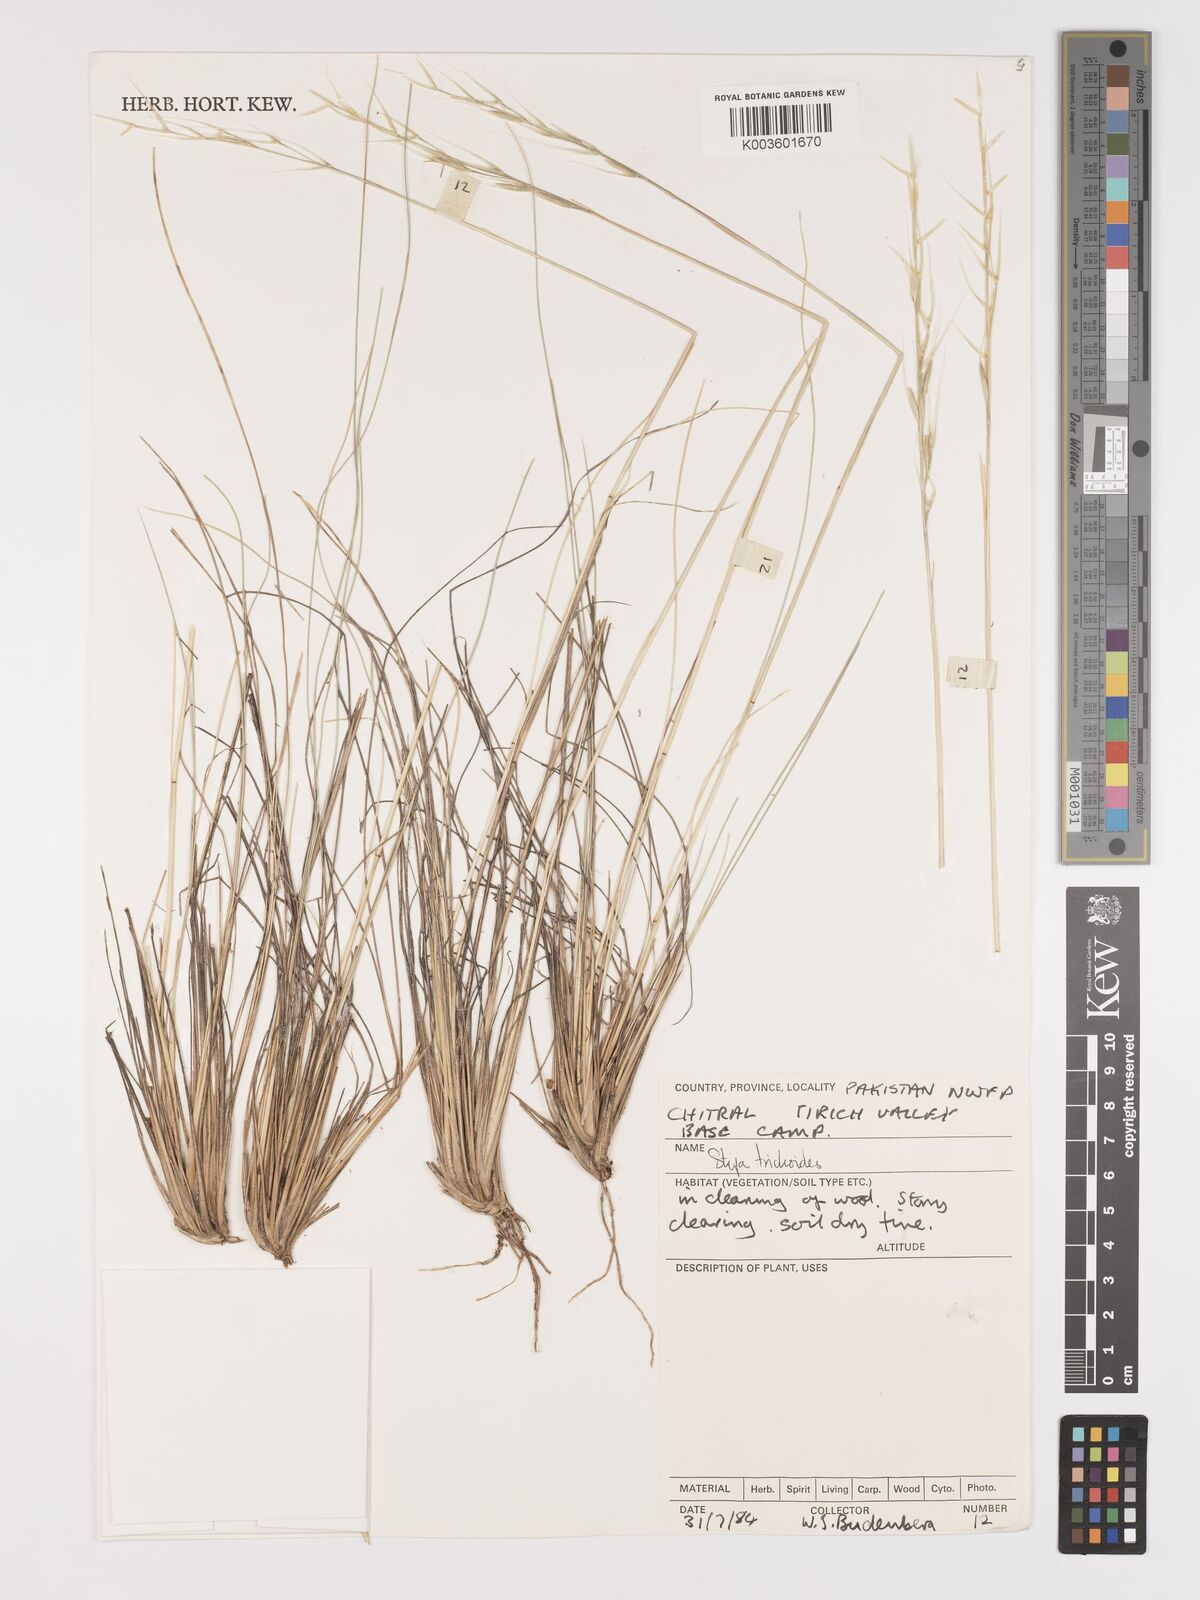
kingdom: Plantae
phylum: Tracheophyta
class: Liliopsida
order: Poales
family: Poaceae
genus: Stipa
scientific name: Stipa turkestanica
